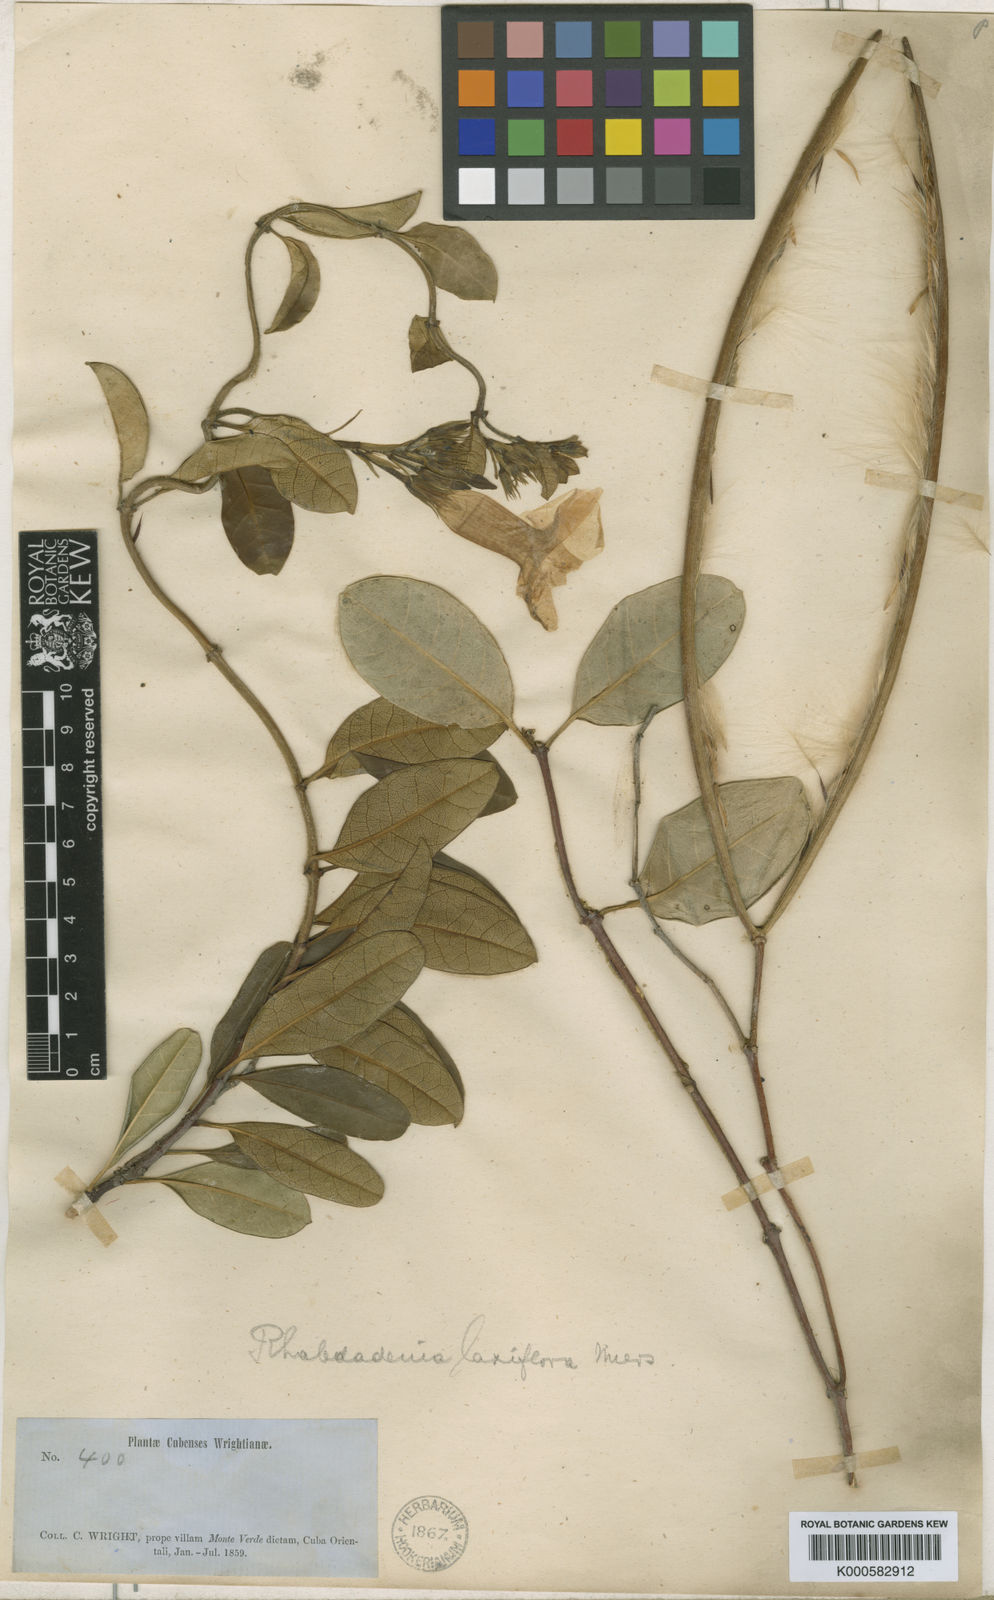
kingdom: Plantae
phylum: Tracheophyta
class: Magnoliopsida
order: Gentianales
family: Apocynaceae
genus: Pentalinon
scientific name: Pentalinon luteum
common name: Licebush
